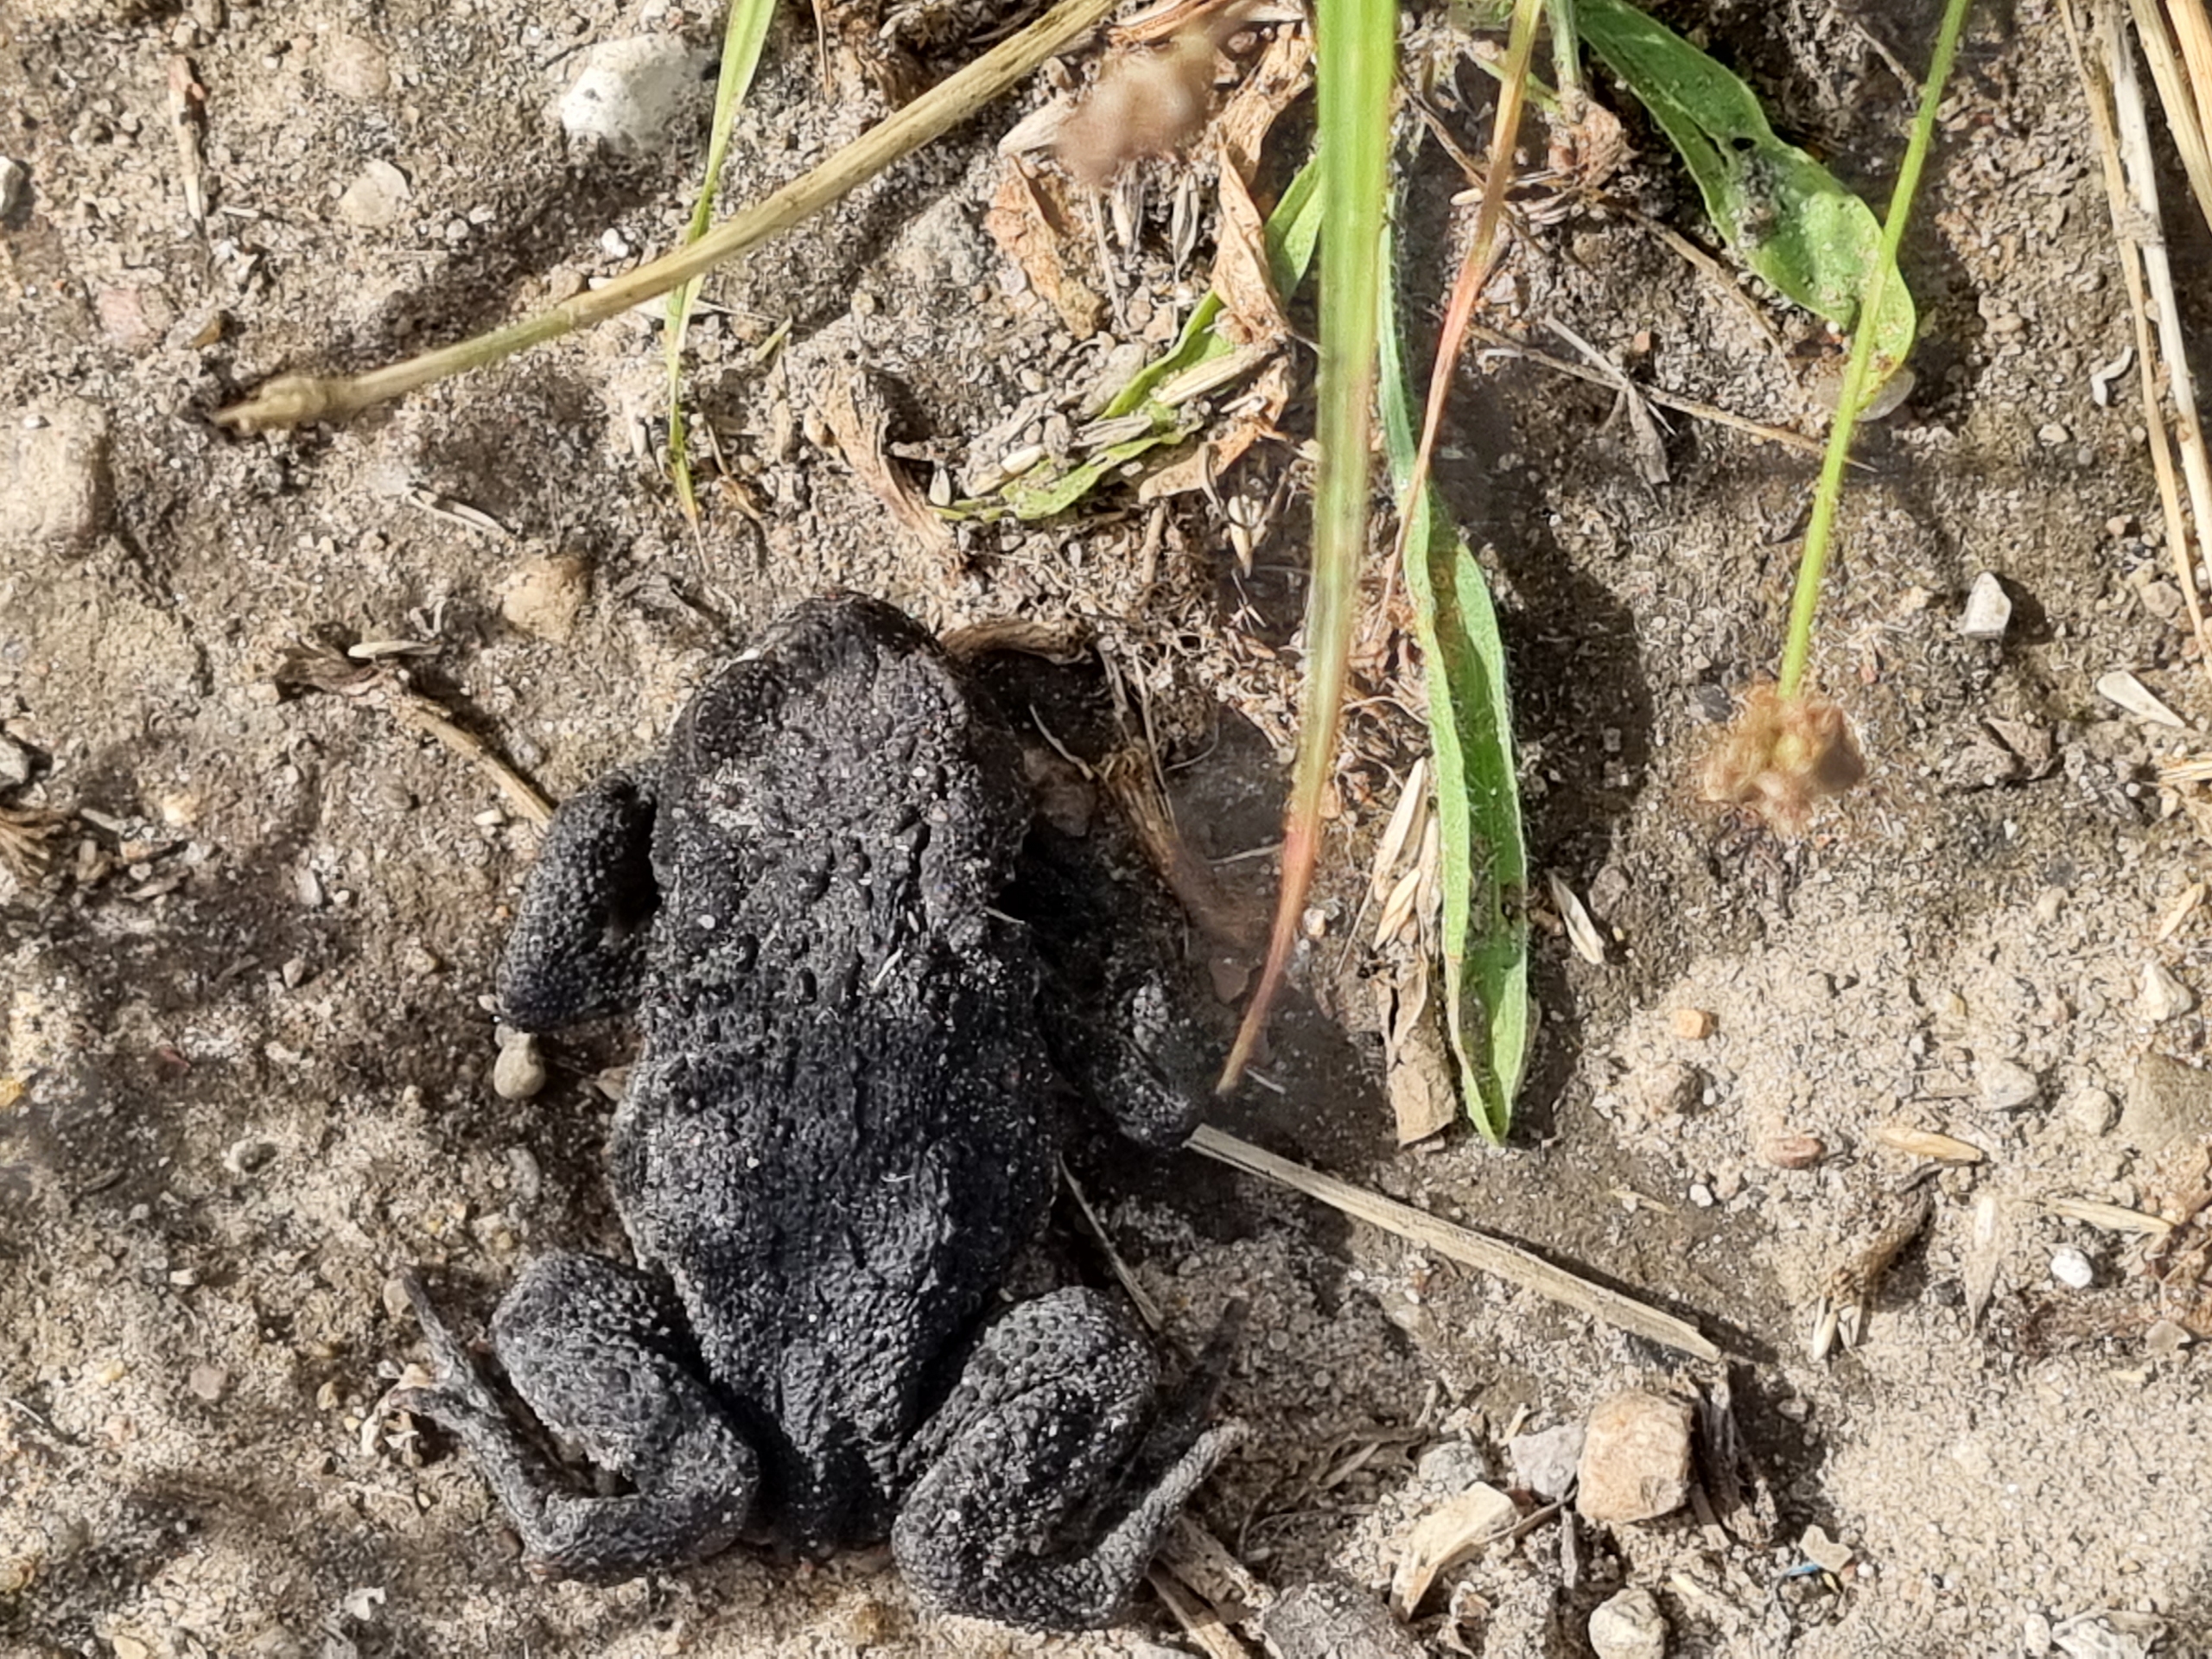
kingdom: Animalia
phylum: Chordata
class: Amphibia
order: Anura
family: Bufonidae
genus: Bufo
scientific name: Bufo bufo
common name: Skrubtudse
